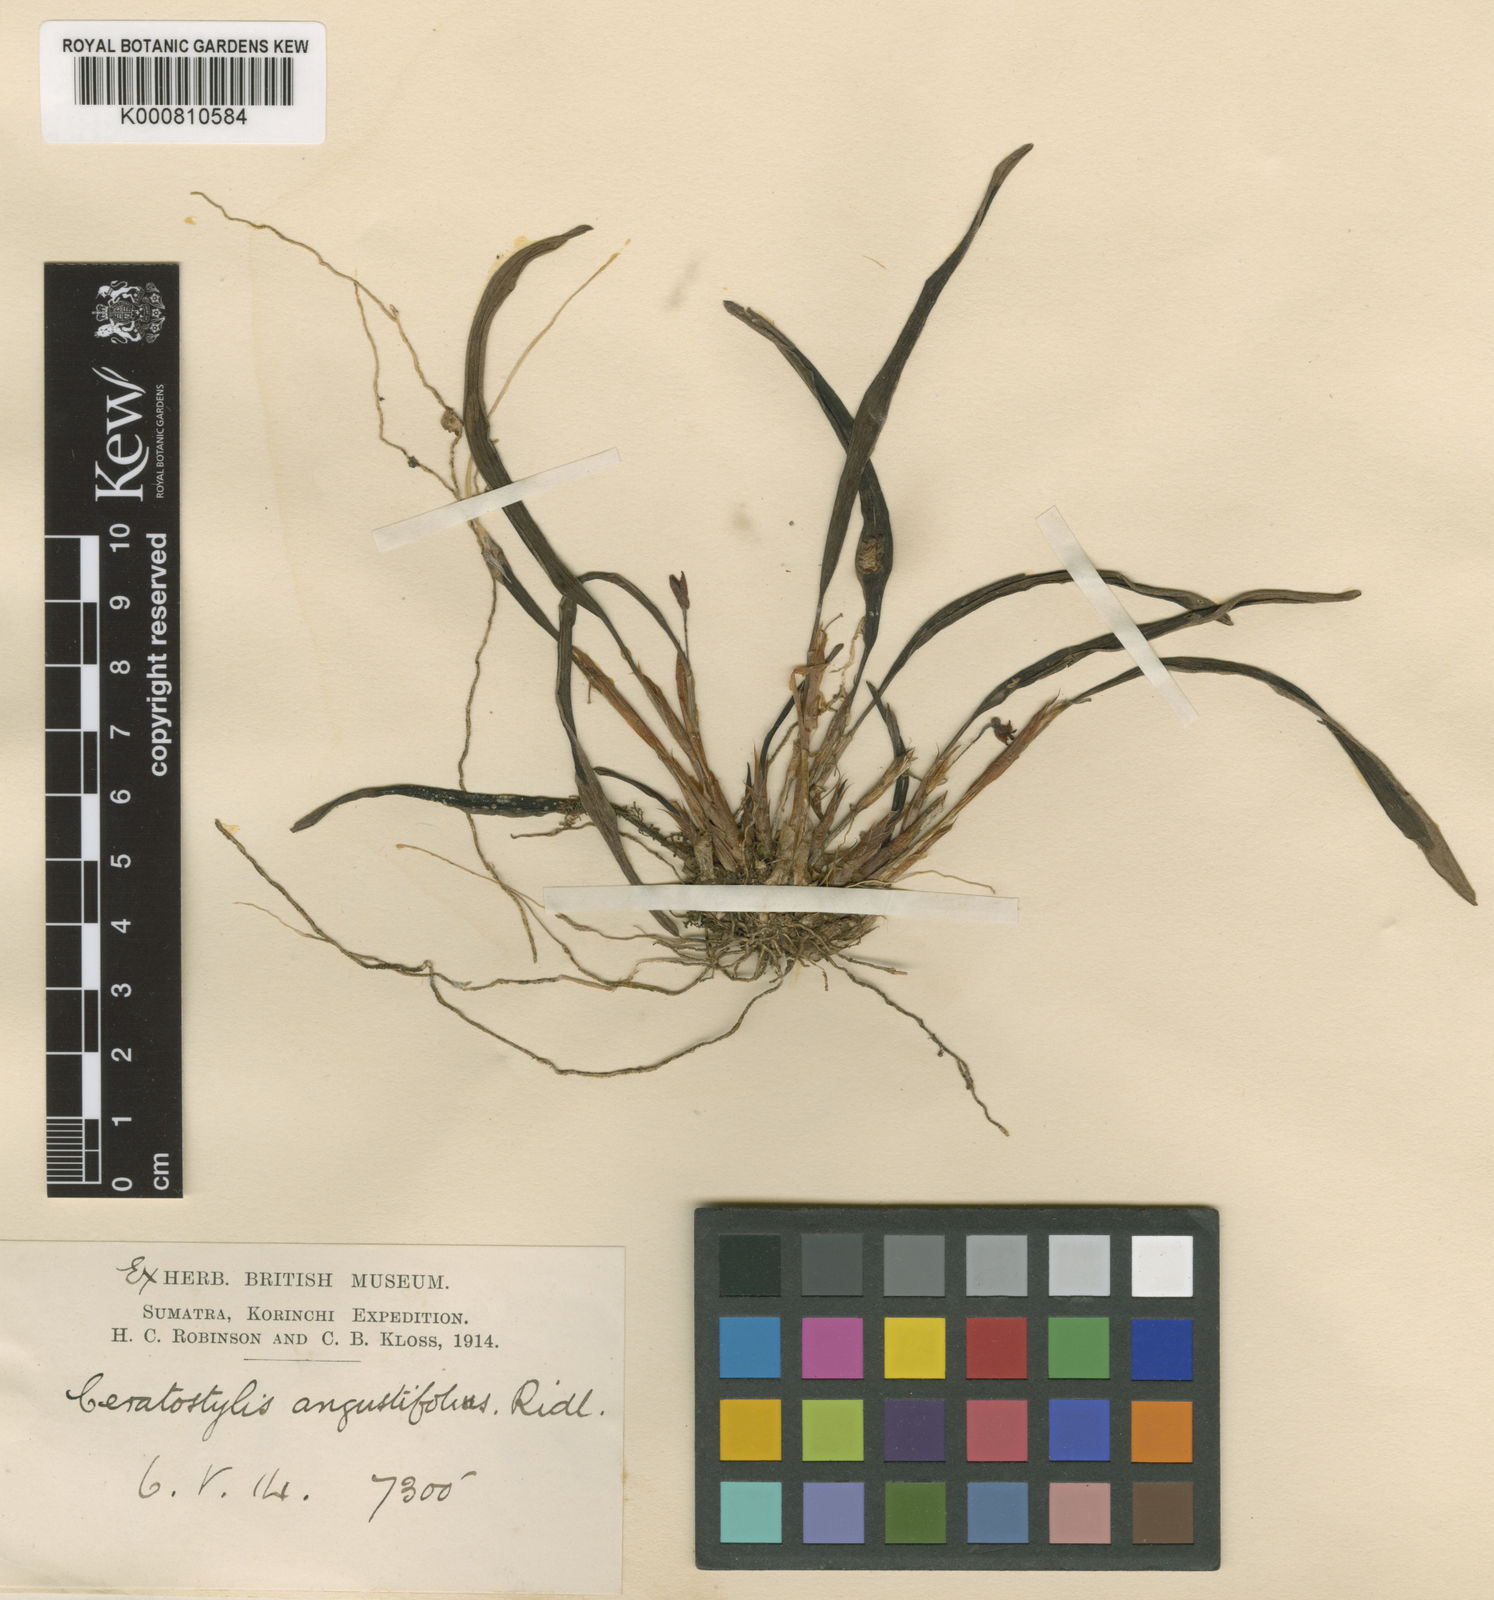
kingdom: Plantae
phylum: Tracheophyta
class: Liliopsida
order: Asparagales
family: Orchidaceae
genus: Ceratostylis
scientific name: Ceratostylis angustifolia
